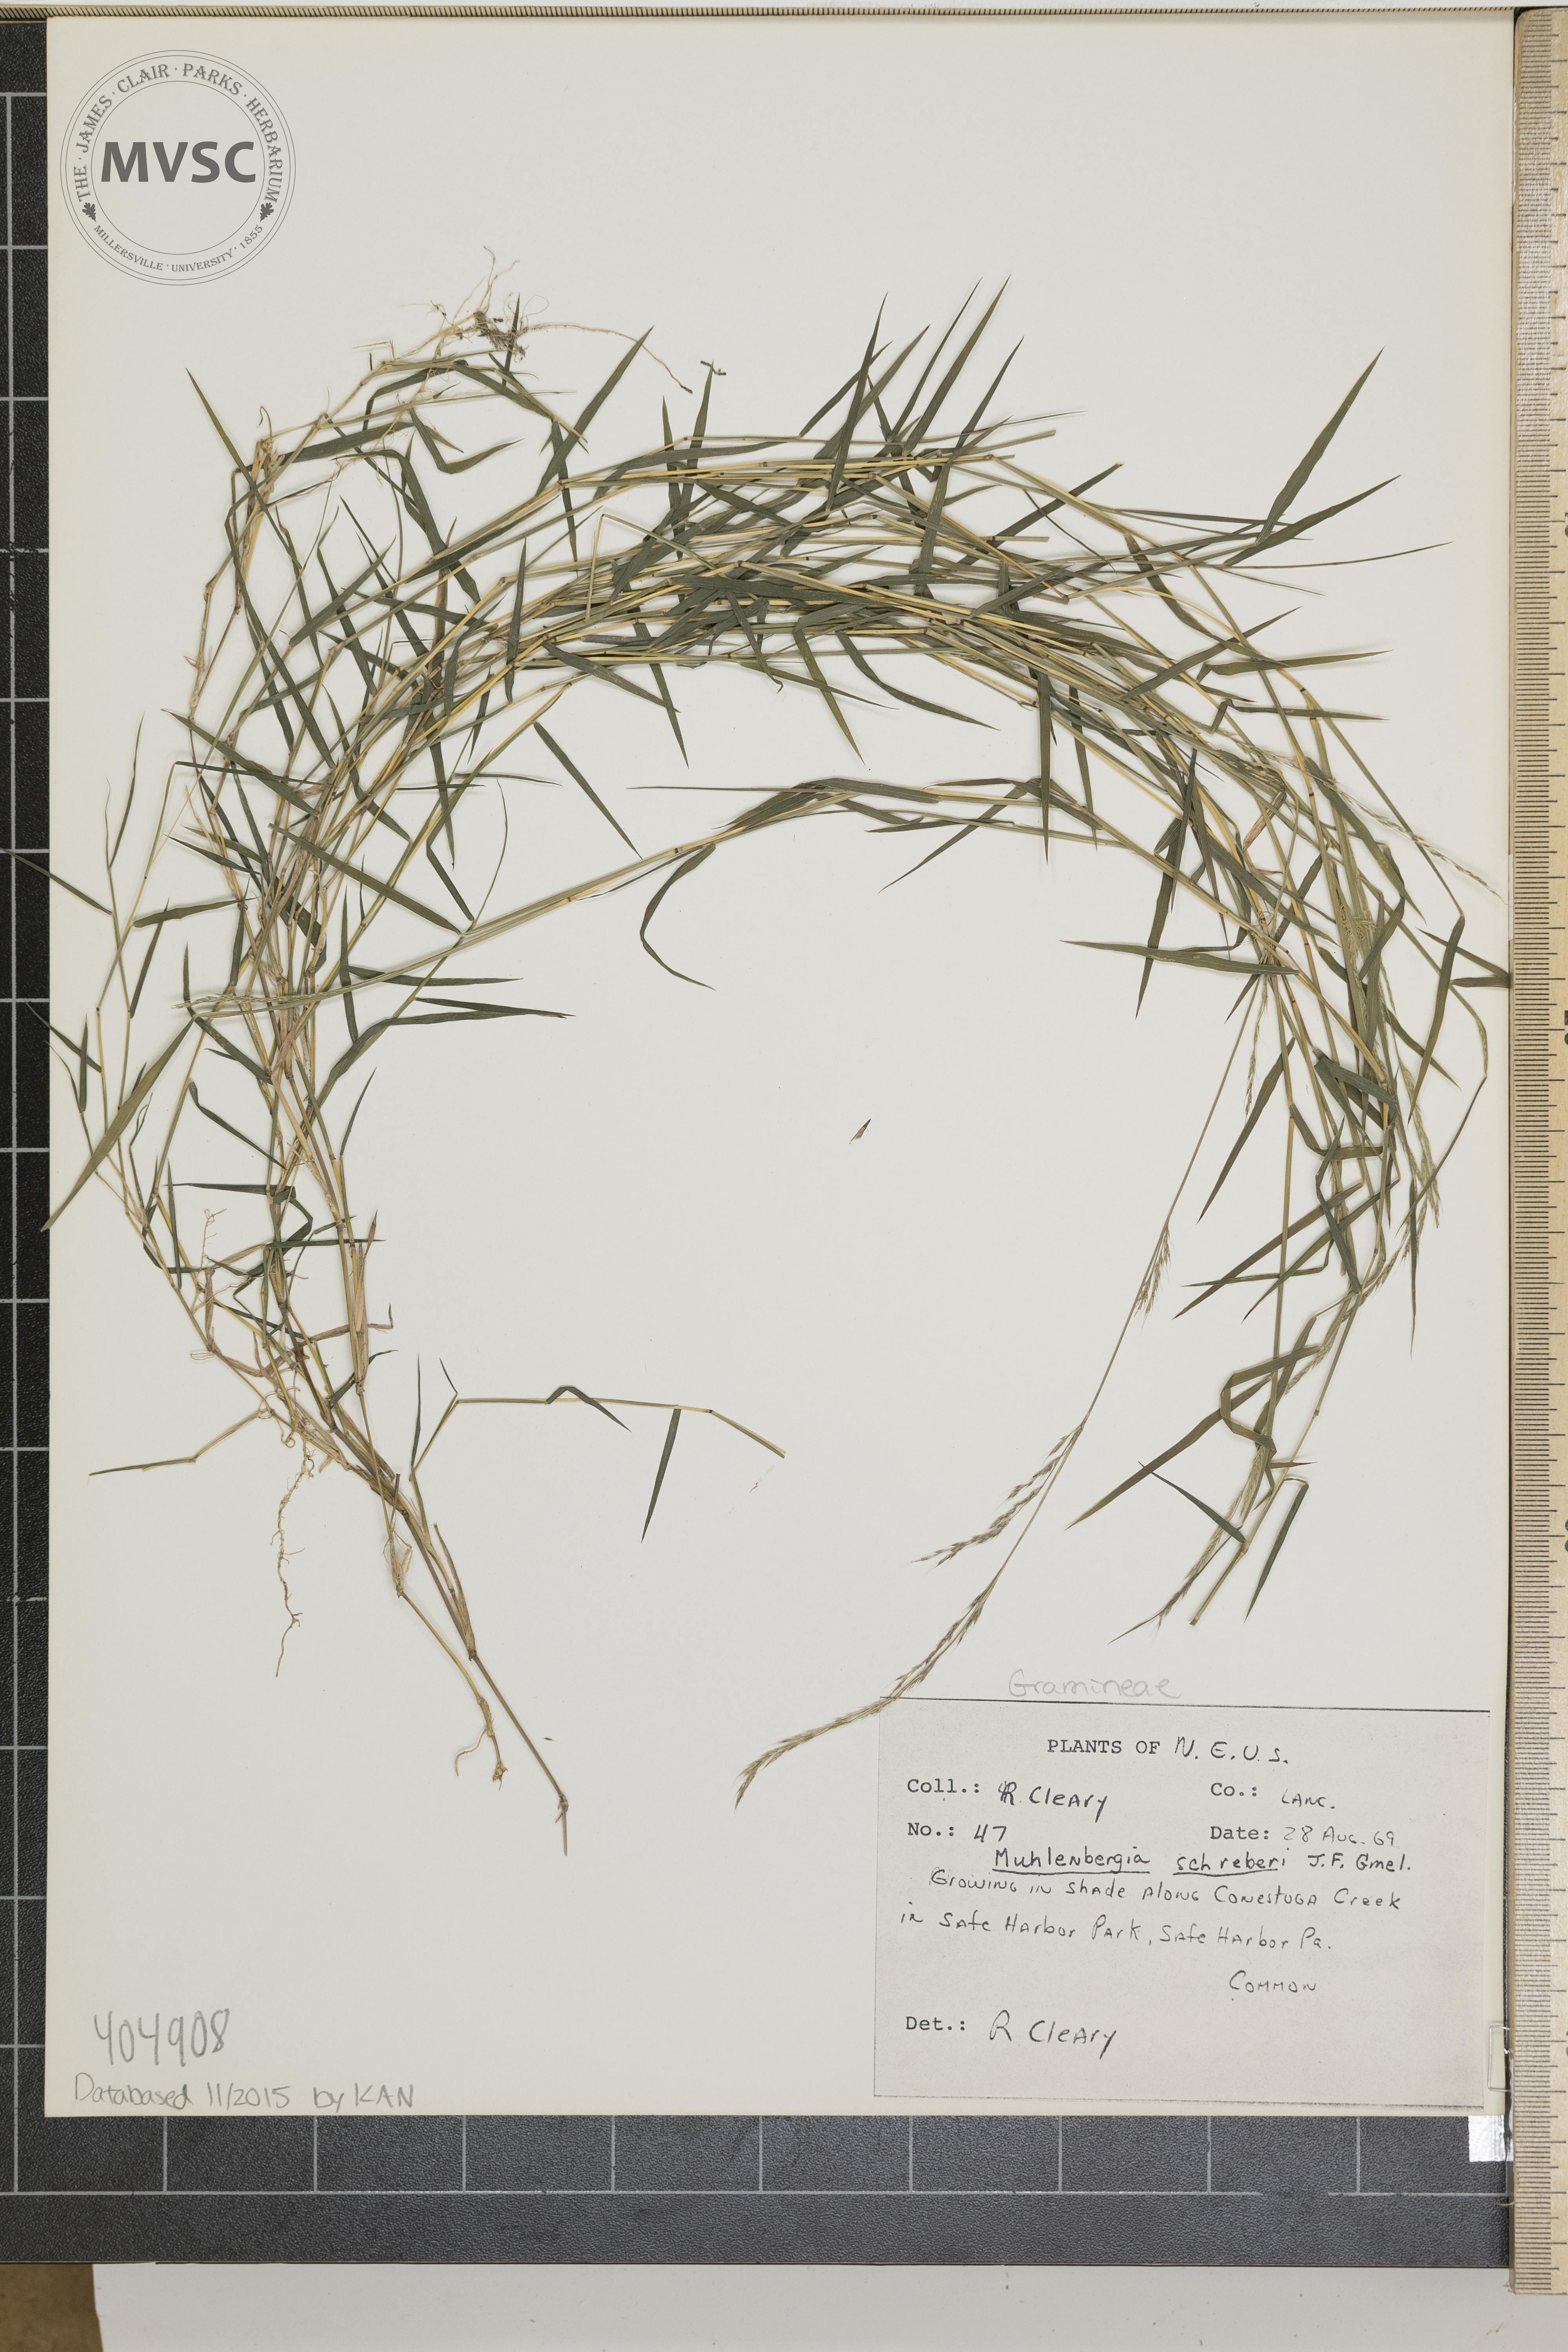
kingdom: Plantae
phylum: Tracheophyta
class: Liliopsida
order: Poales
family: Poaceae
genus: Muhlenbergia
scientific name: Muhlenbergia schreberi
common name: Nimblewill
